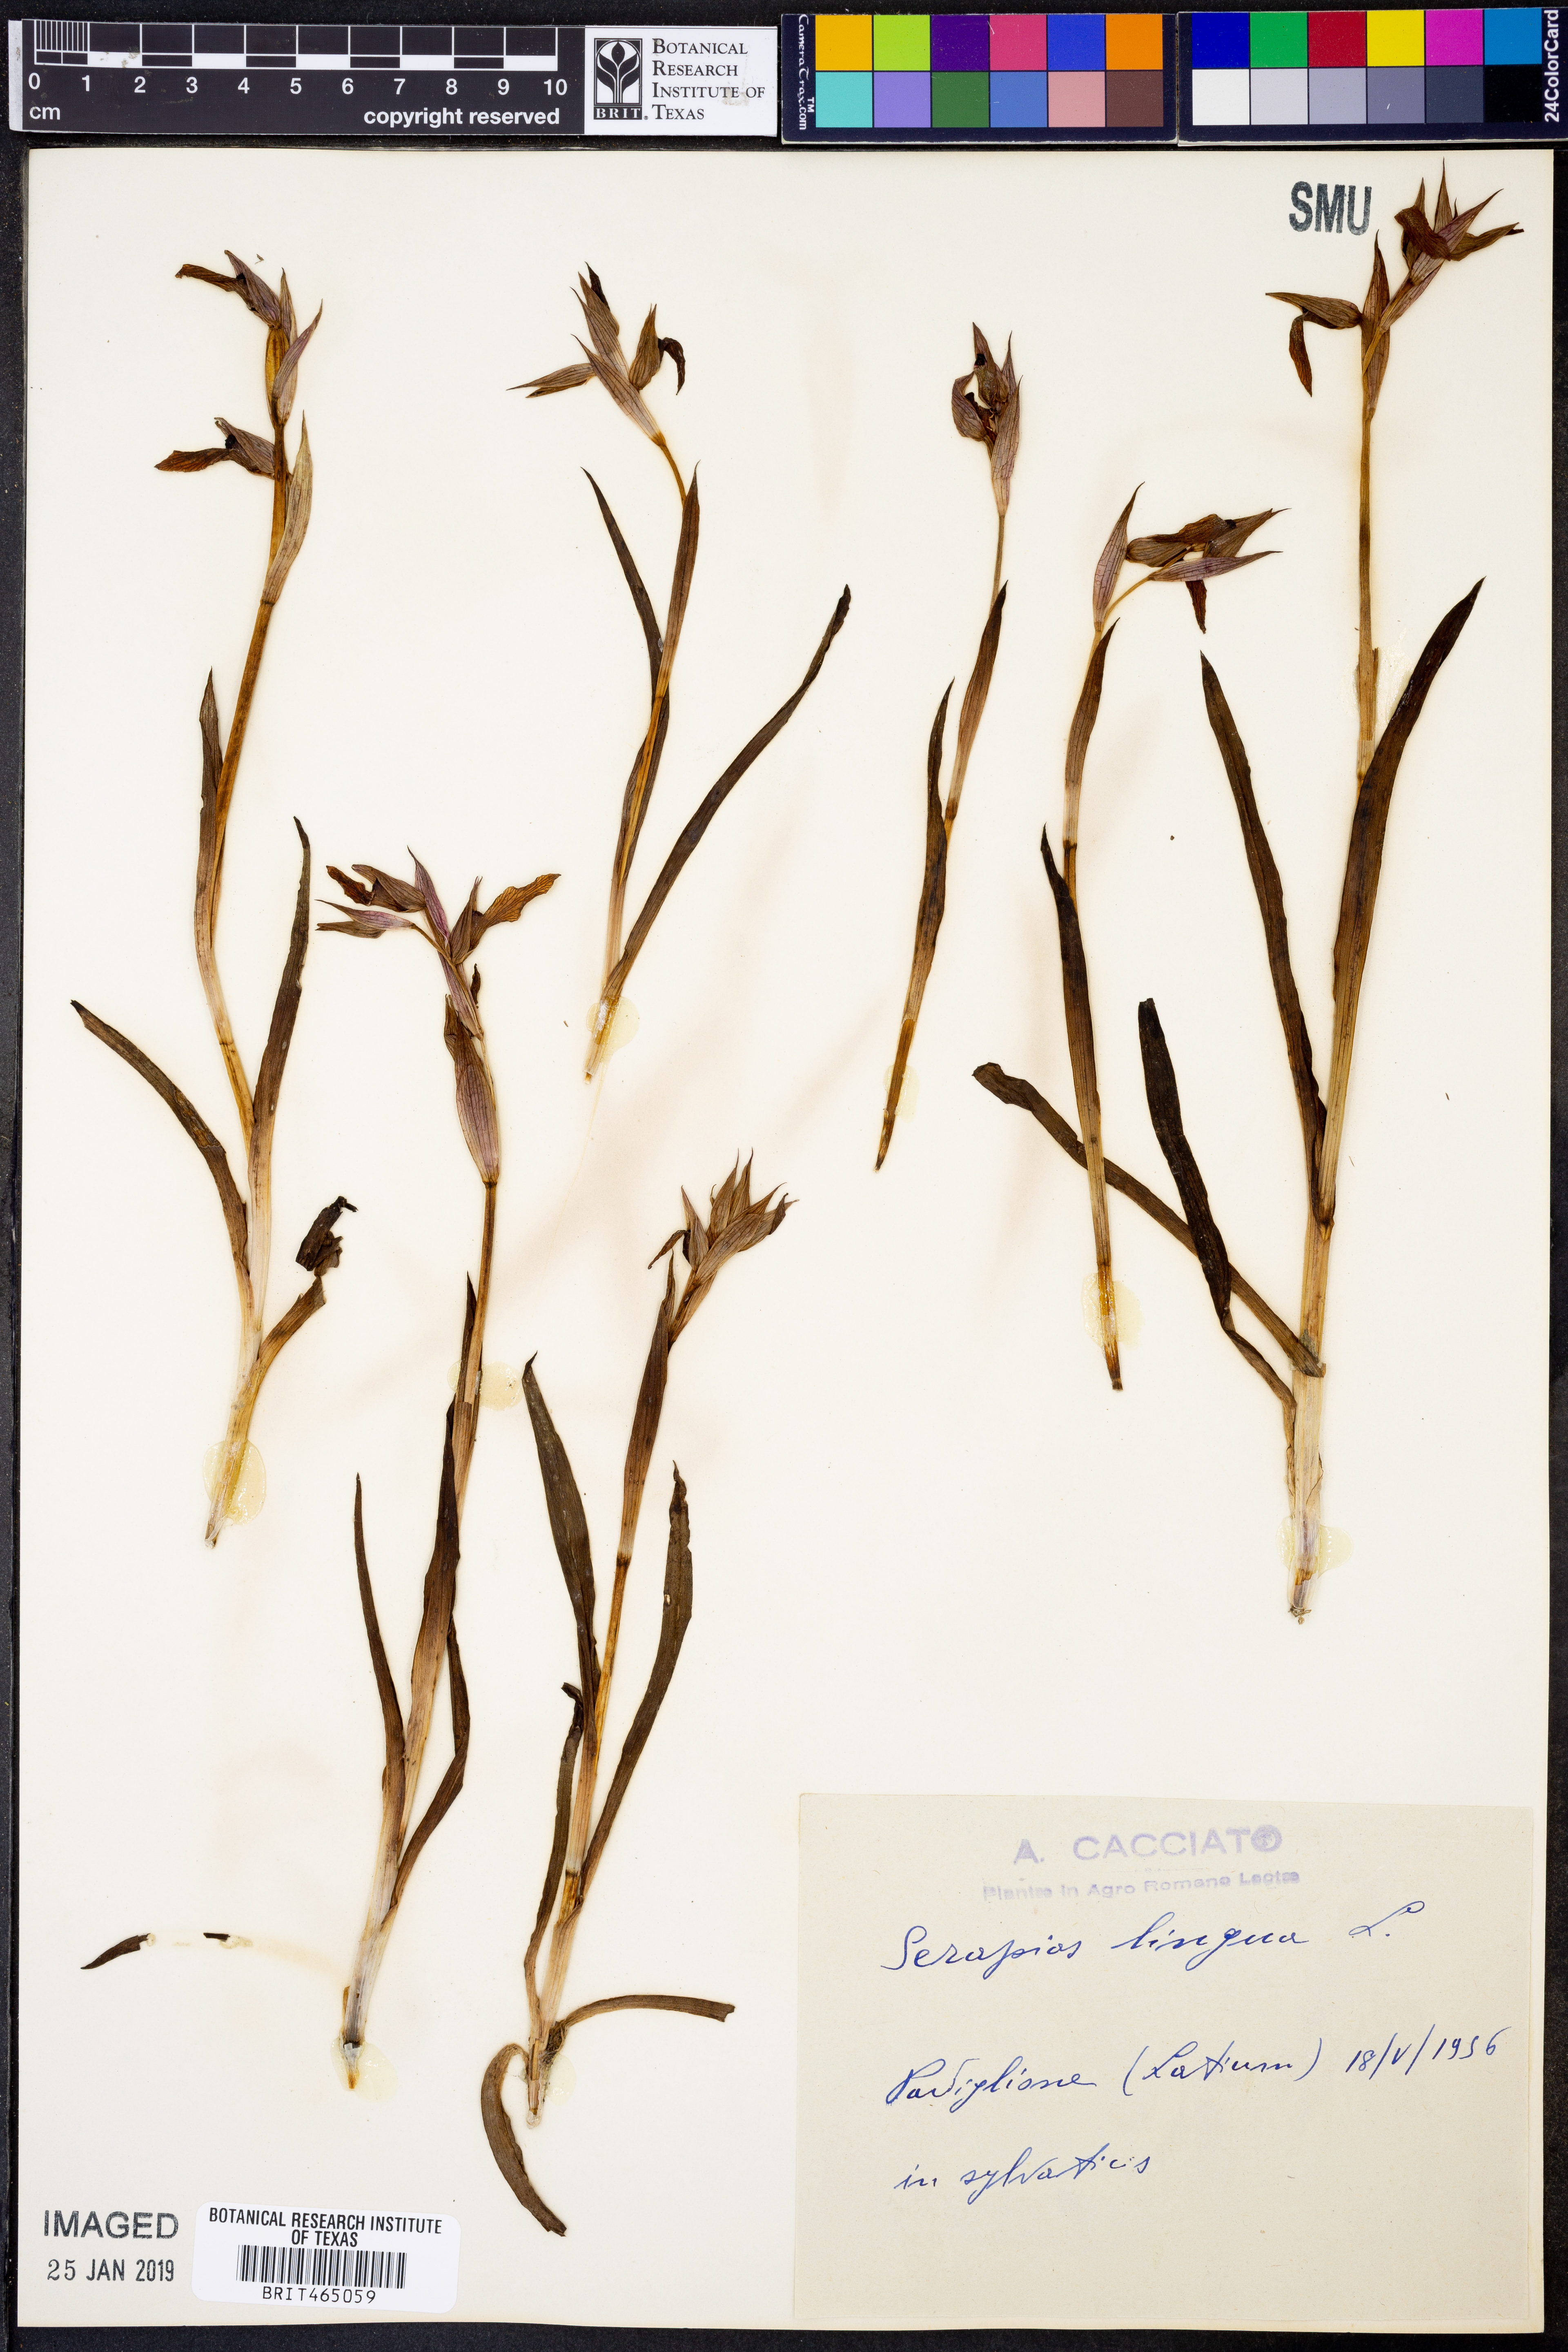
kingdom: Plantae
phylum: Tracheophyta
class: Liliopsida
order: Asparagales
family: Orchidaceae
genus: Serapias
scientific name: Serapias lingua
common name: Tongue-orchid
